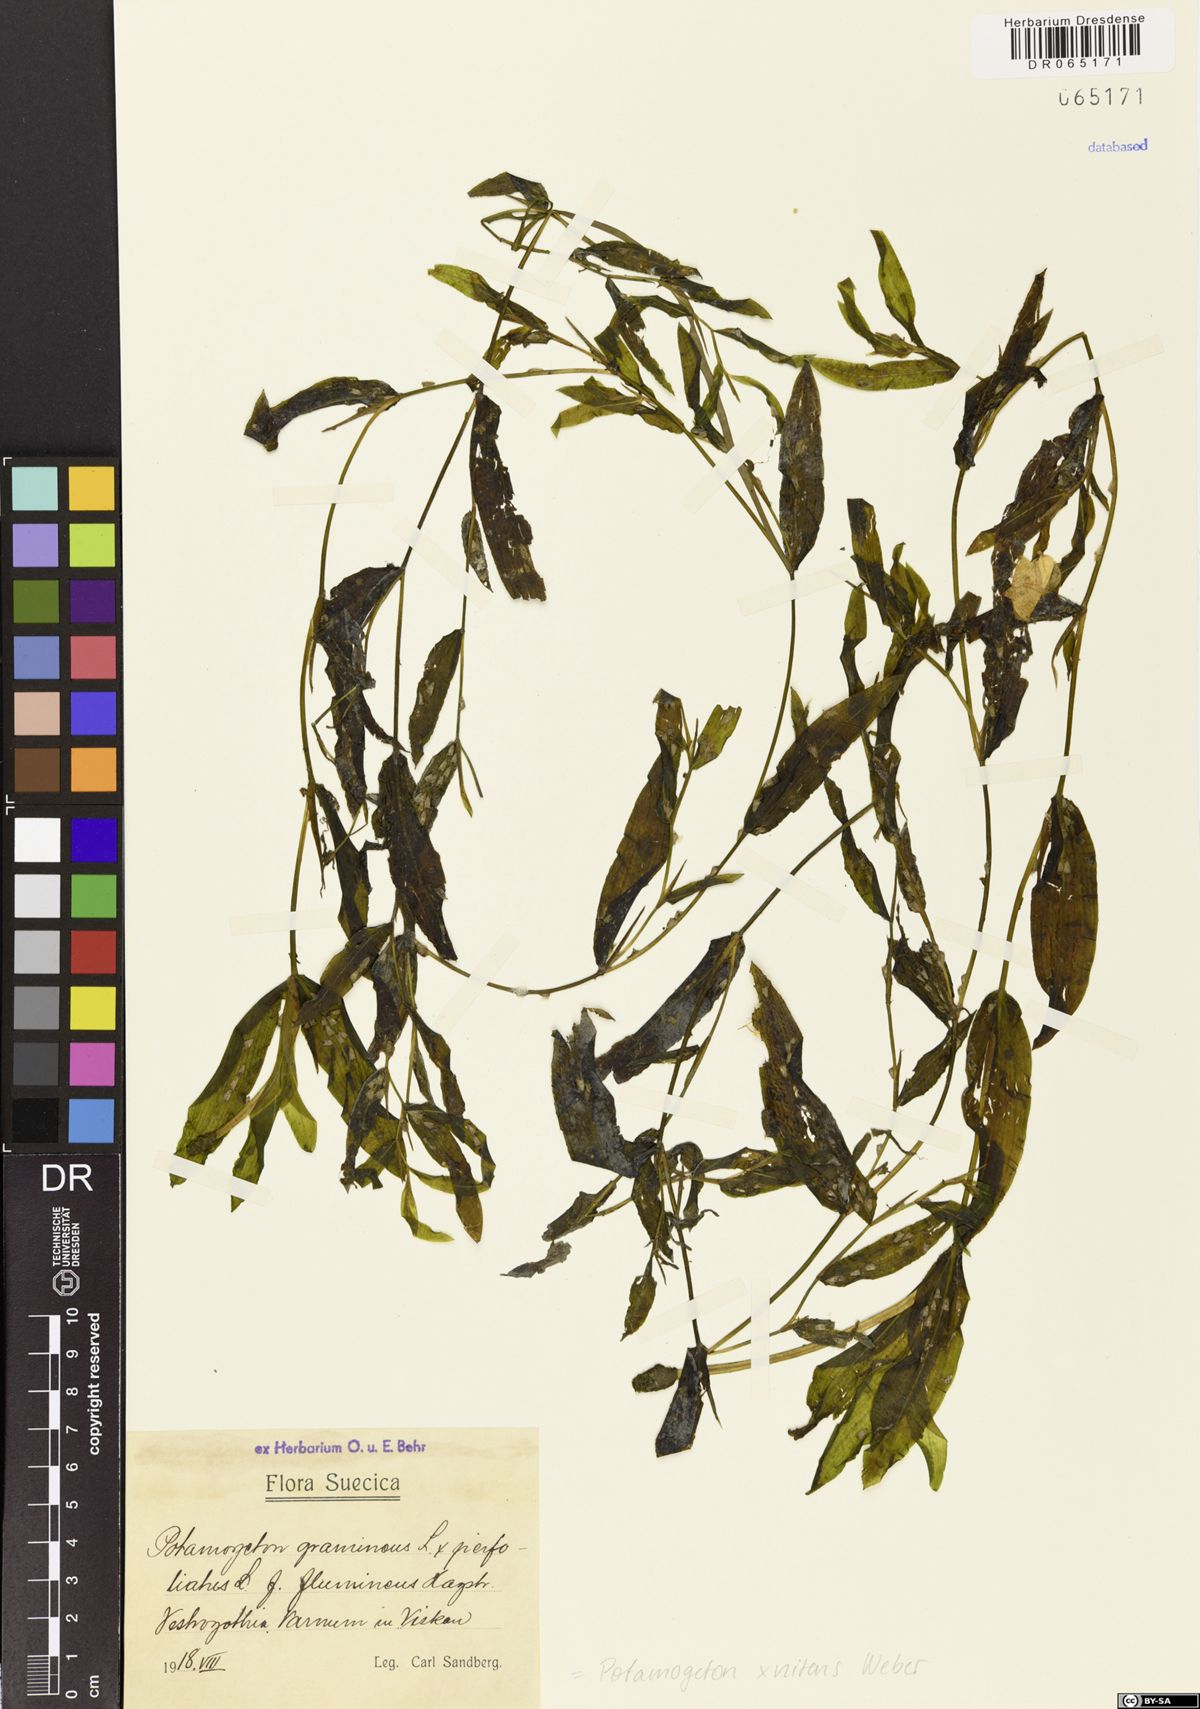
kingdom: Plantae
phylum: Tracheophyta
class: Liliopsida
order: Alismatales
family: Potamogetonaceae
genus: Potamogeton
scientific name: Potamogeton nitens
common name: Pondweed
